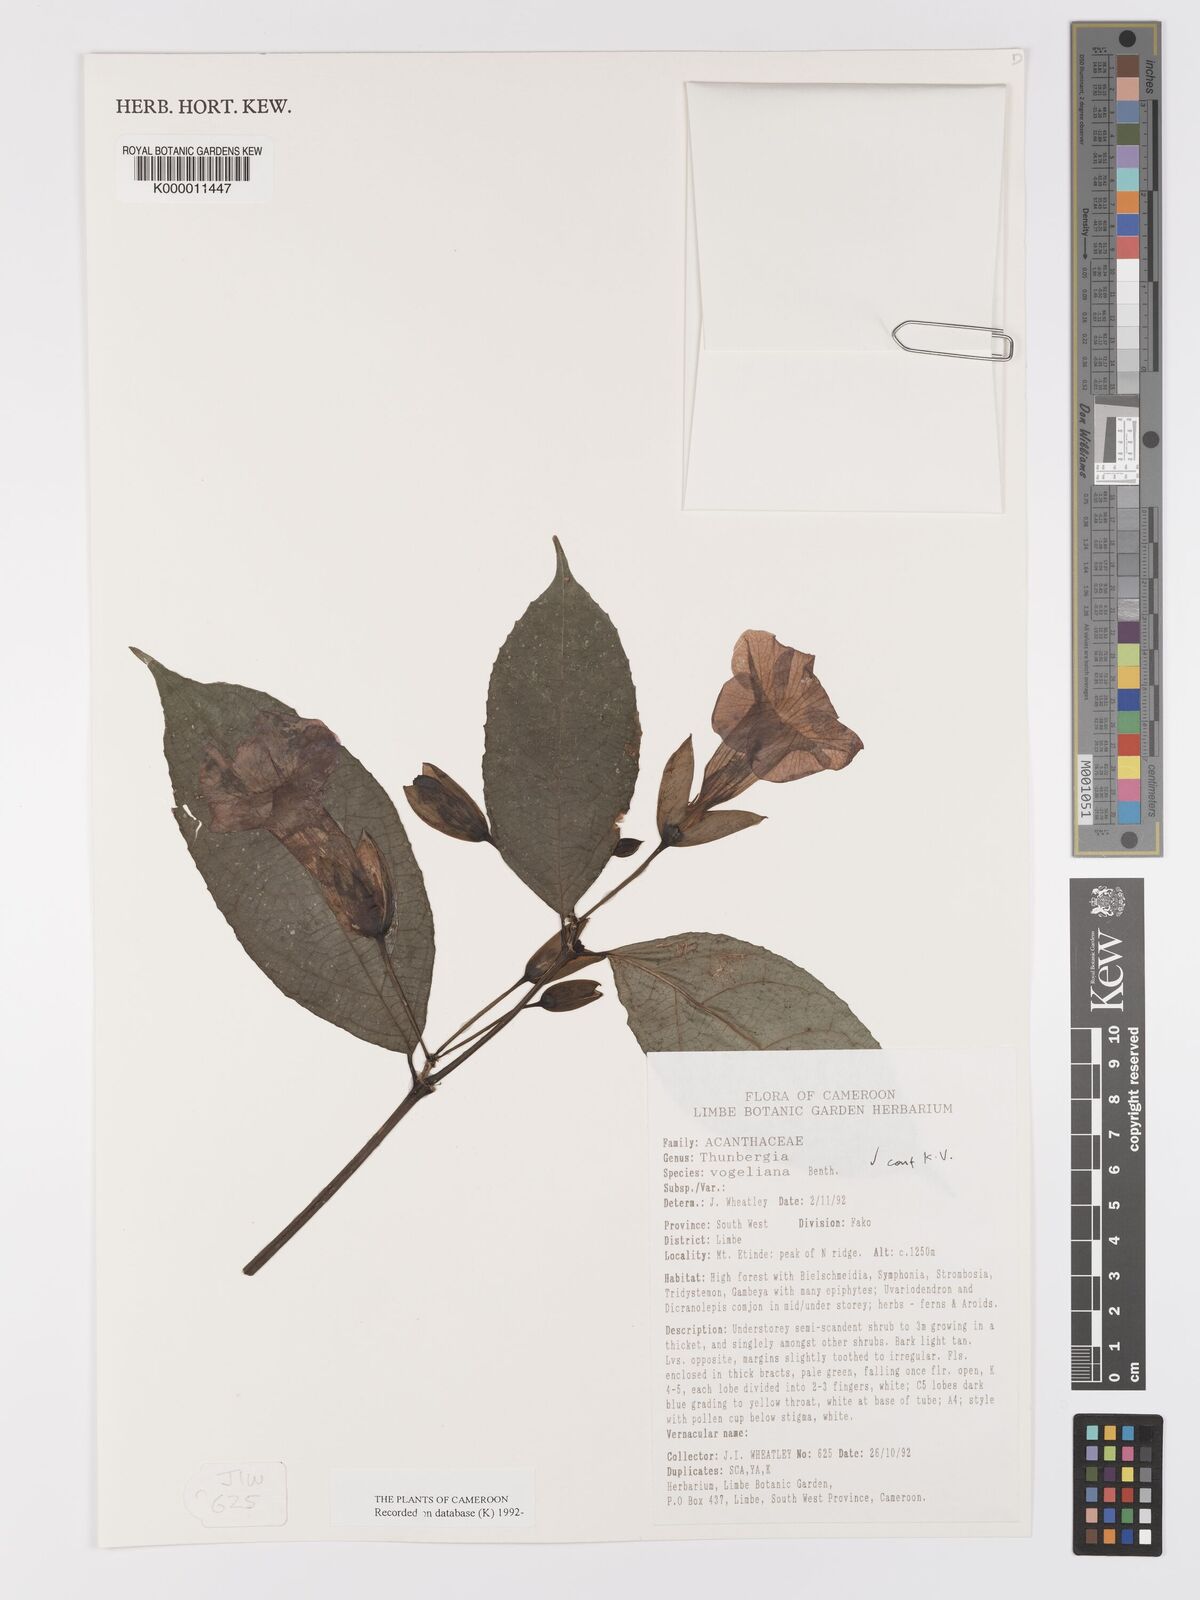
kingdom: Plantae
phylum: Tracheophyta
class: Magnoliopsida
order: Lamiales
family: Acanthaceae
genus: Thunbergia
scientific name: Thunbergia vogeliana
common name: Acanthaceae
